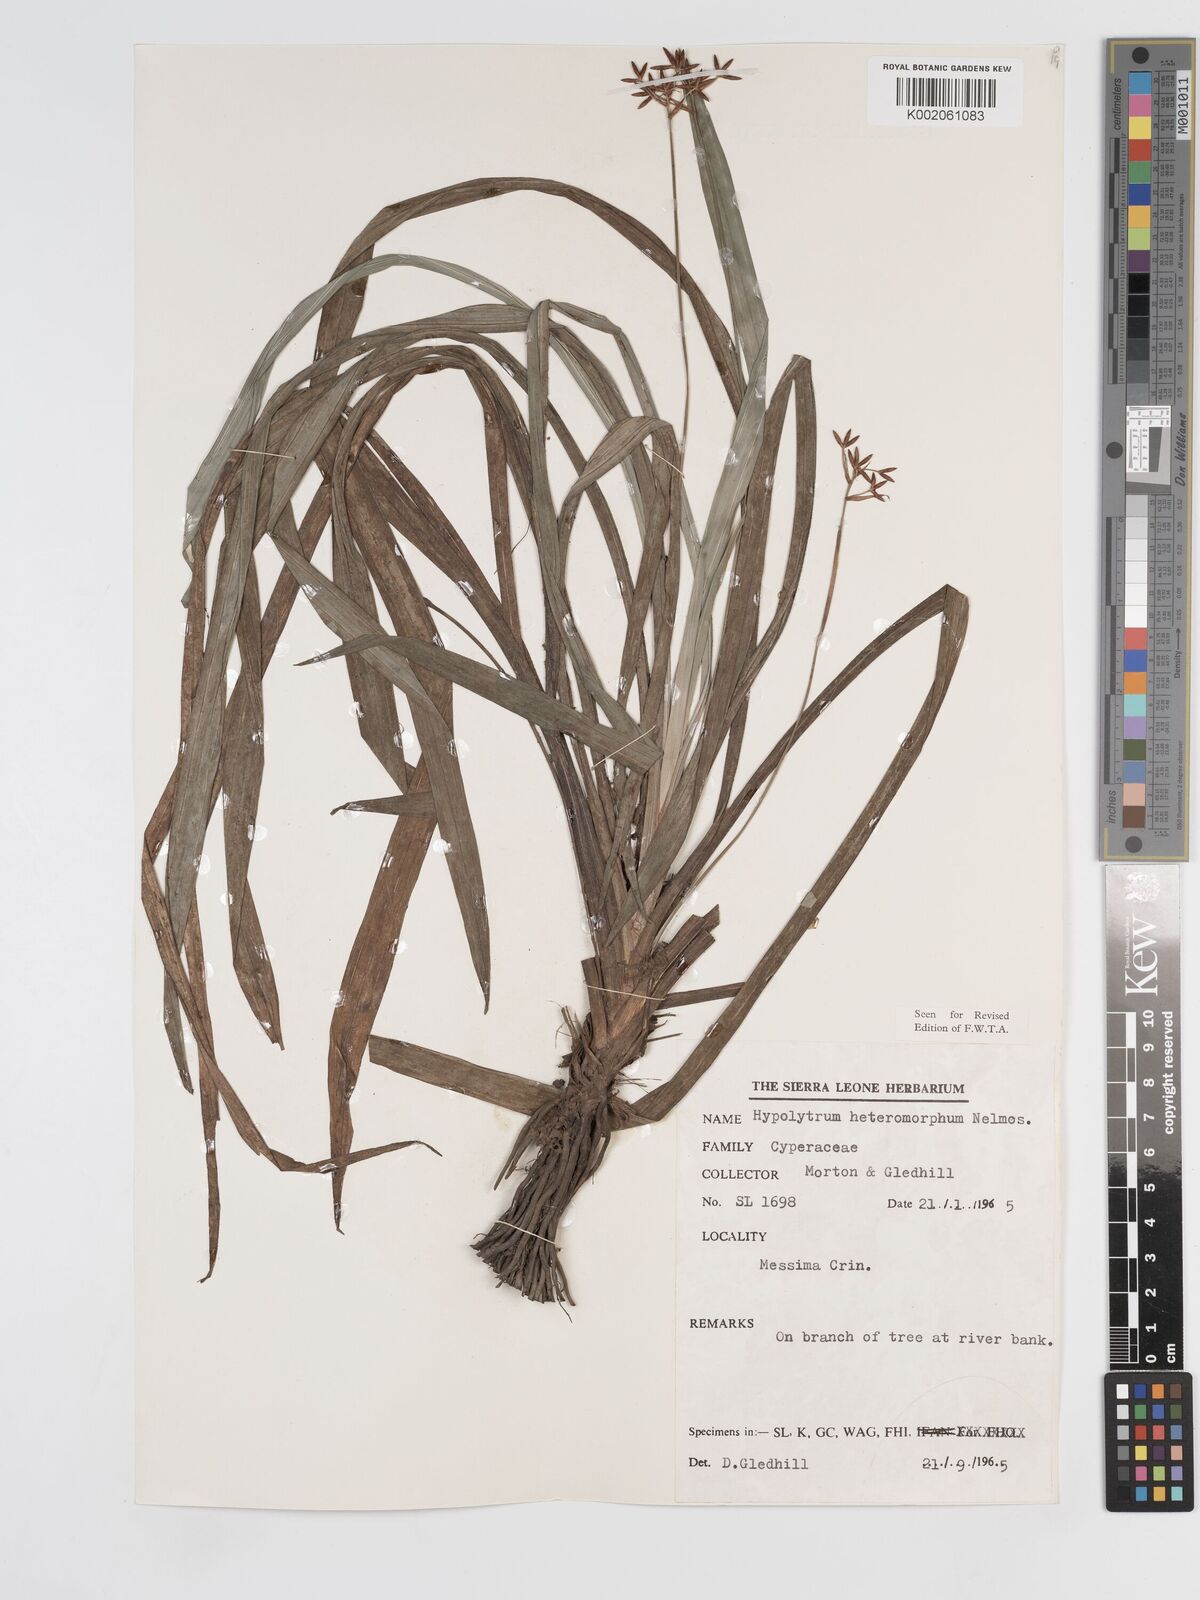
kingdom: Plantae
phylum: Tracheophyta
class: Liliopsida
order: Poales
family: Cyperaceae
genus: Hypolytrum
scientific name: Hypolytrum heteromorphum
